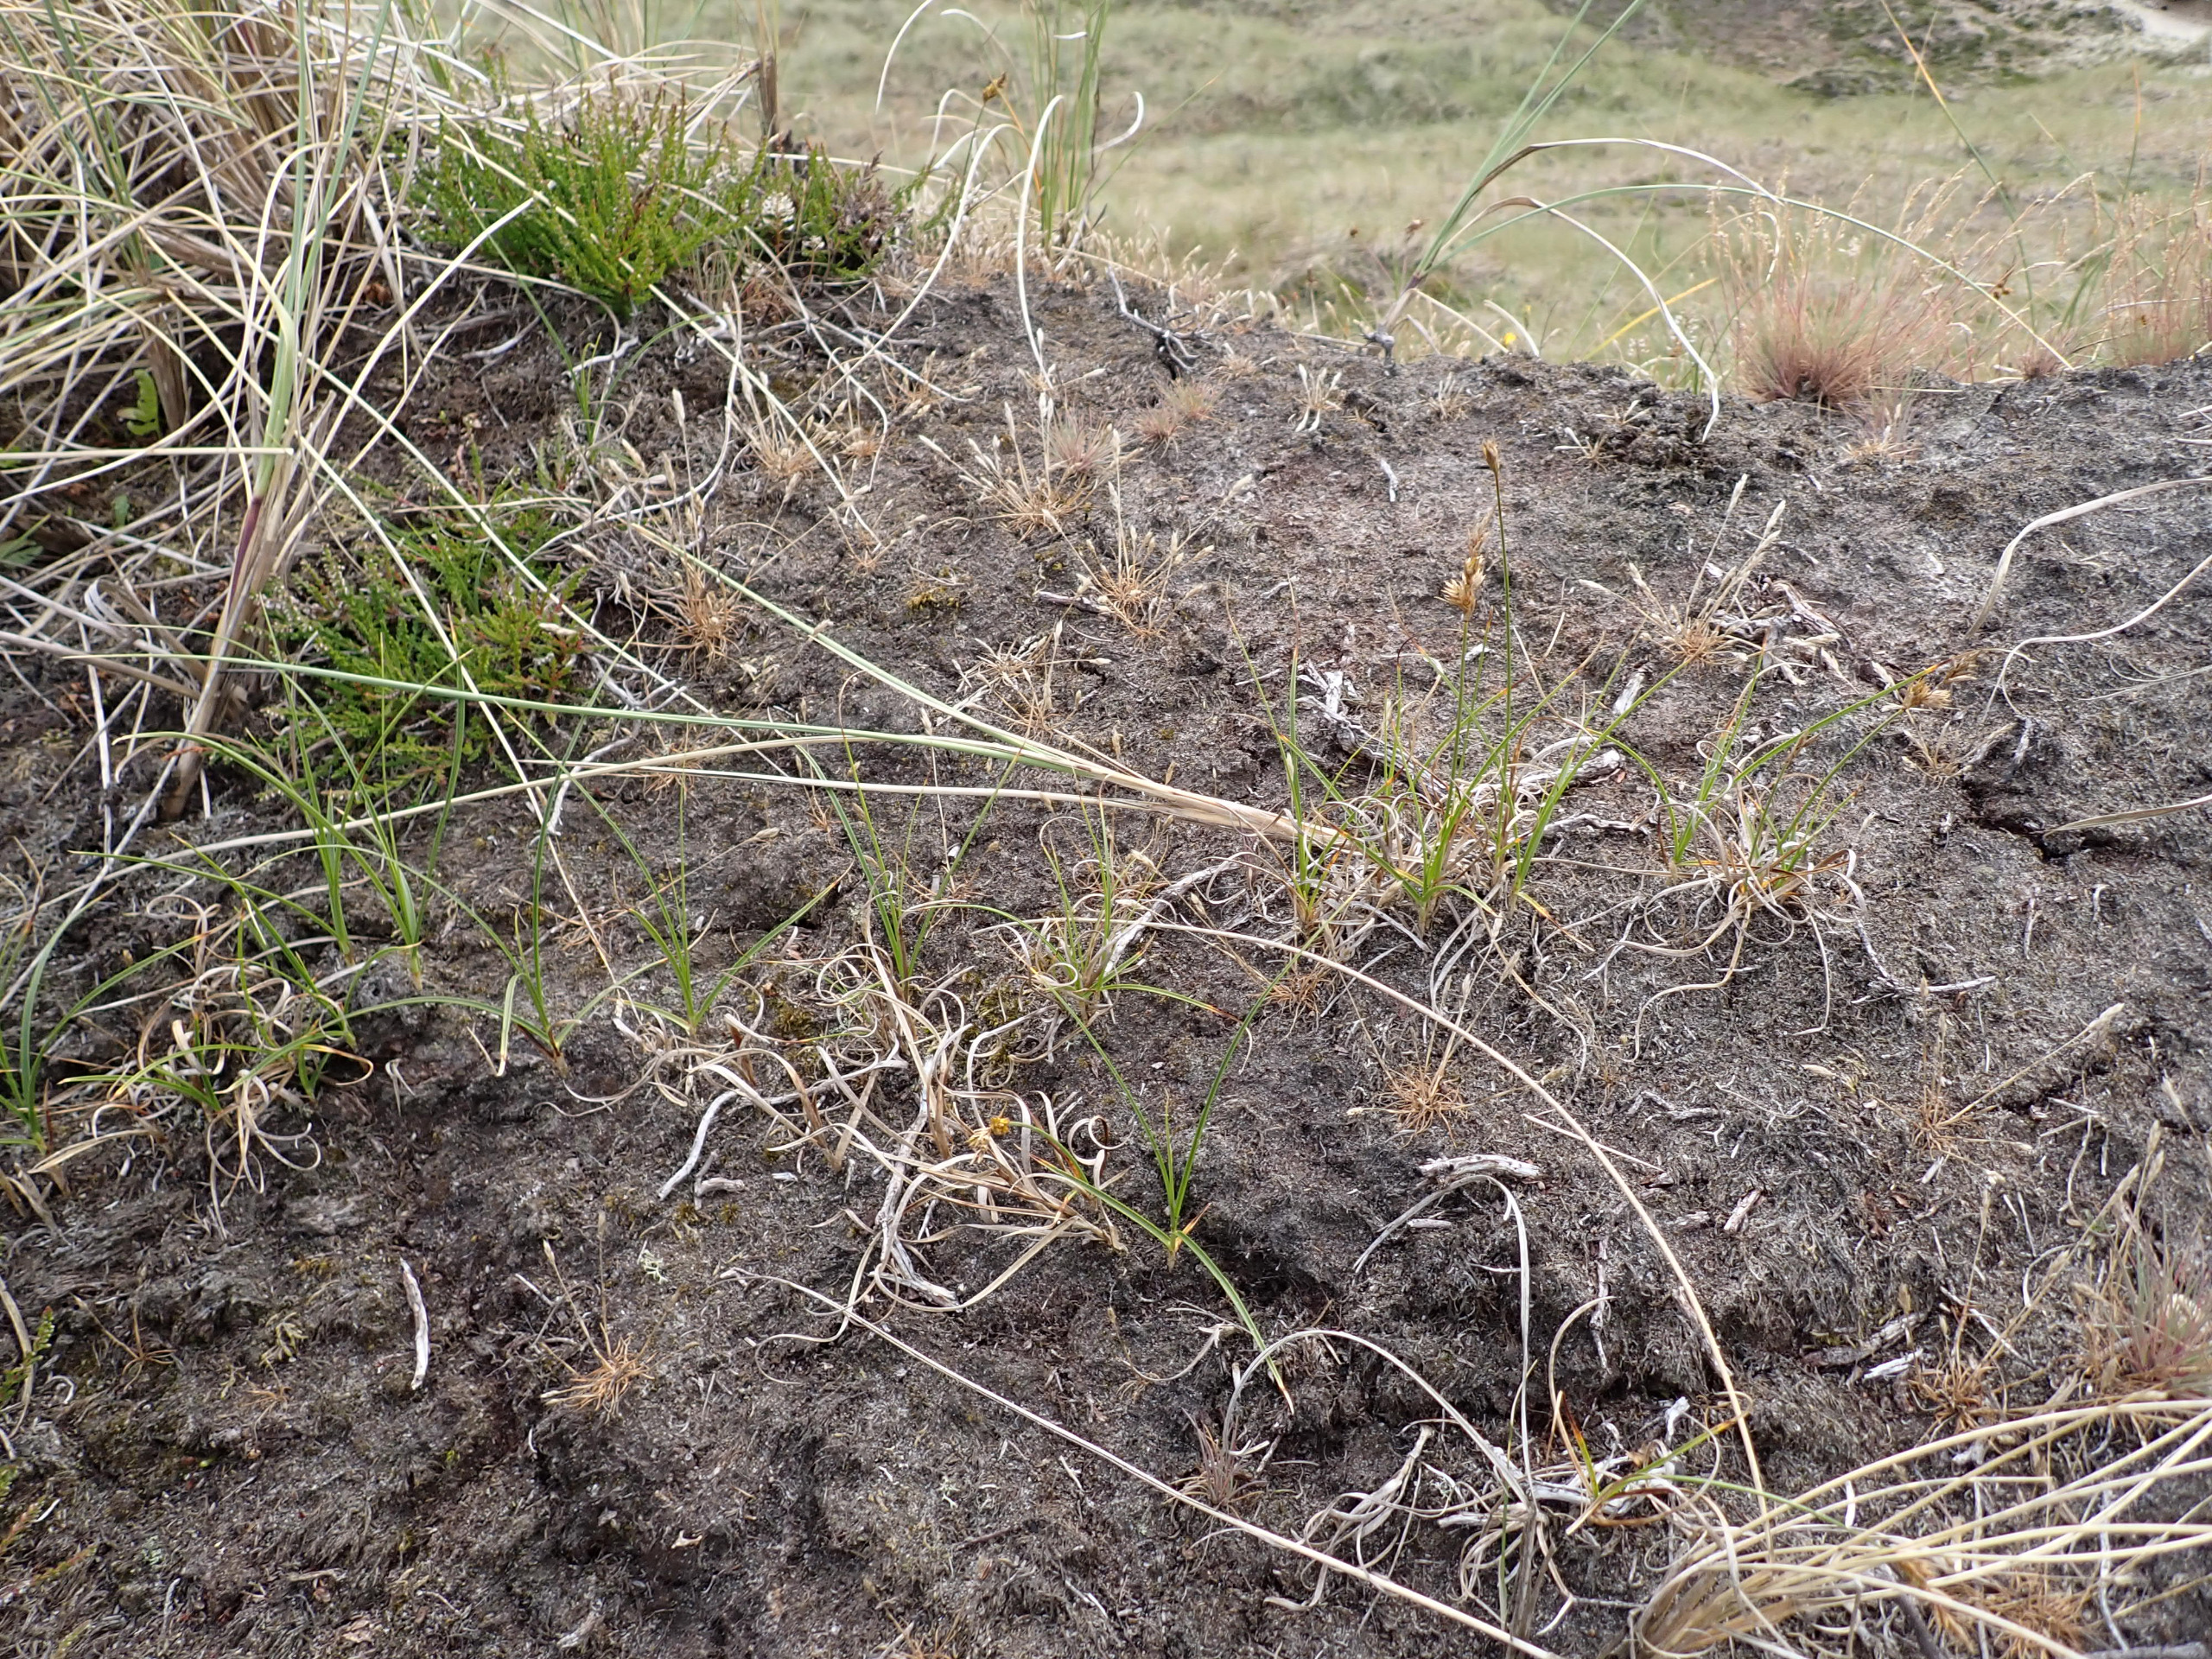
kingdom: Plantae
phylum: Tracheophyta
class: Liliopsida
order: Poales
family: Cyperaceae
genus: Carex
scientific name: Carex arenaria
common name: Sand-star
